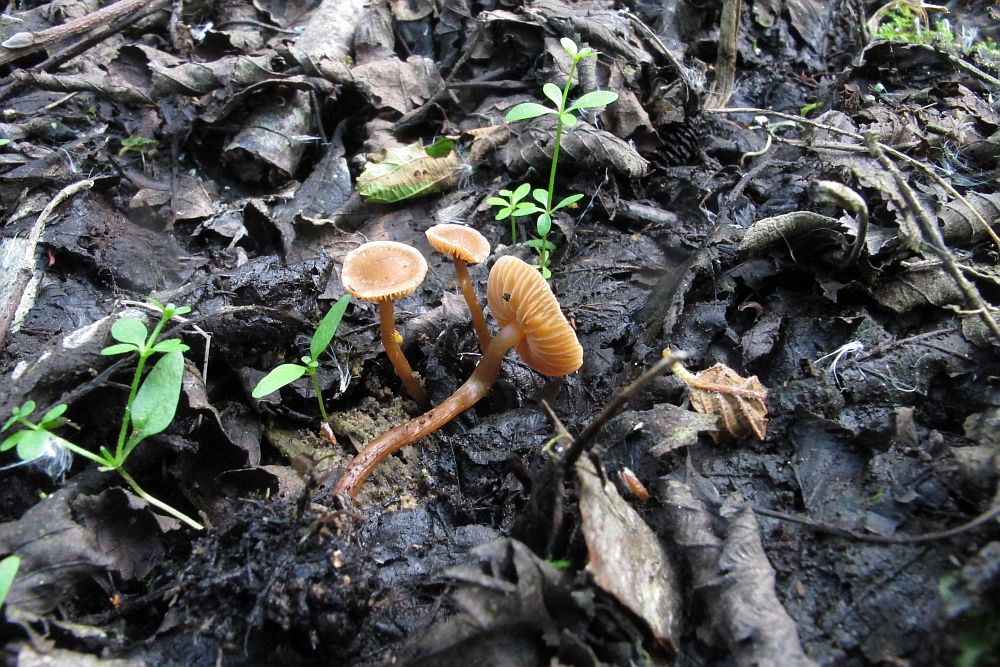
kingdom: Fungi
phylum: Basidiomycota
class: Agaricomycetes
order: Agaricales
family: Hymenogastraceae
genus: Naucoria
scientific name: Naucoria scolecina
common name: mørk elle-knaphat
